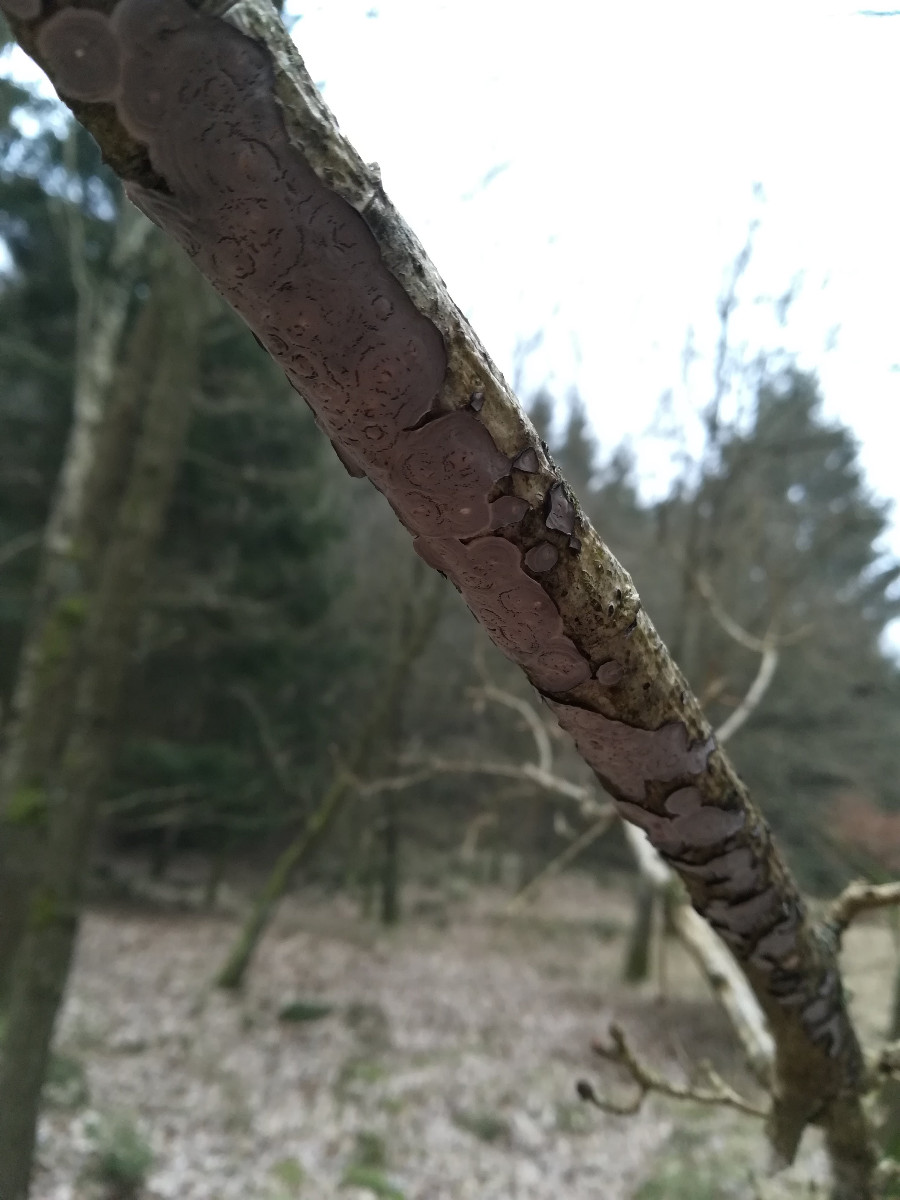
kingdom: Fungi
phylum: Basidiomycota
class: Agaricomycetes
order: Russulales
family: Peniophoraceae
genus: Peniophora
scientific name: Peniophora quercina
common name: ege-voksskind
